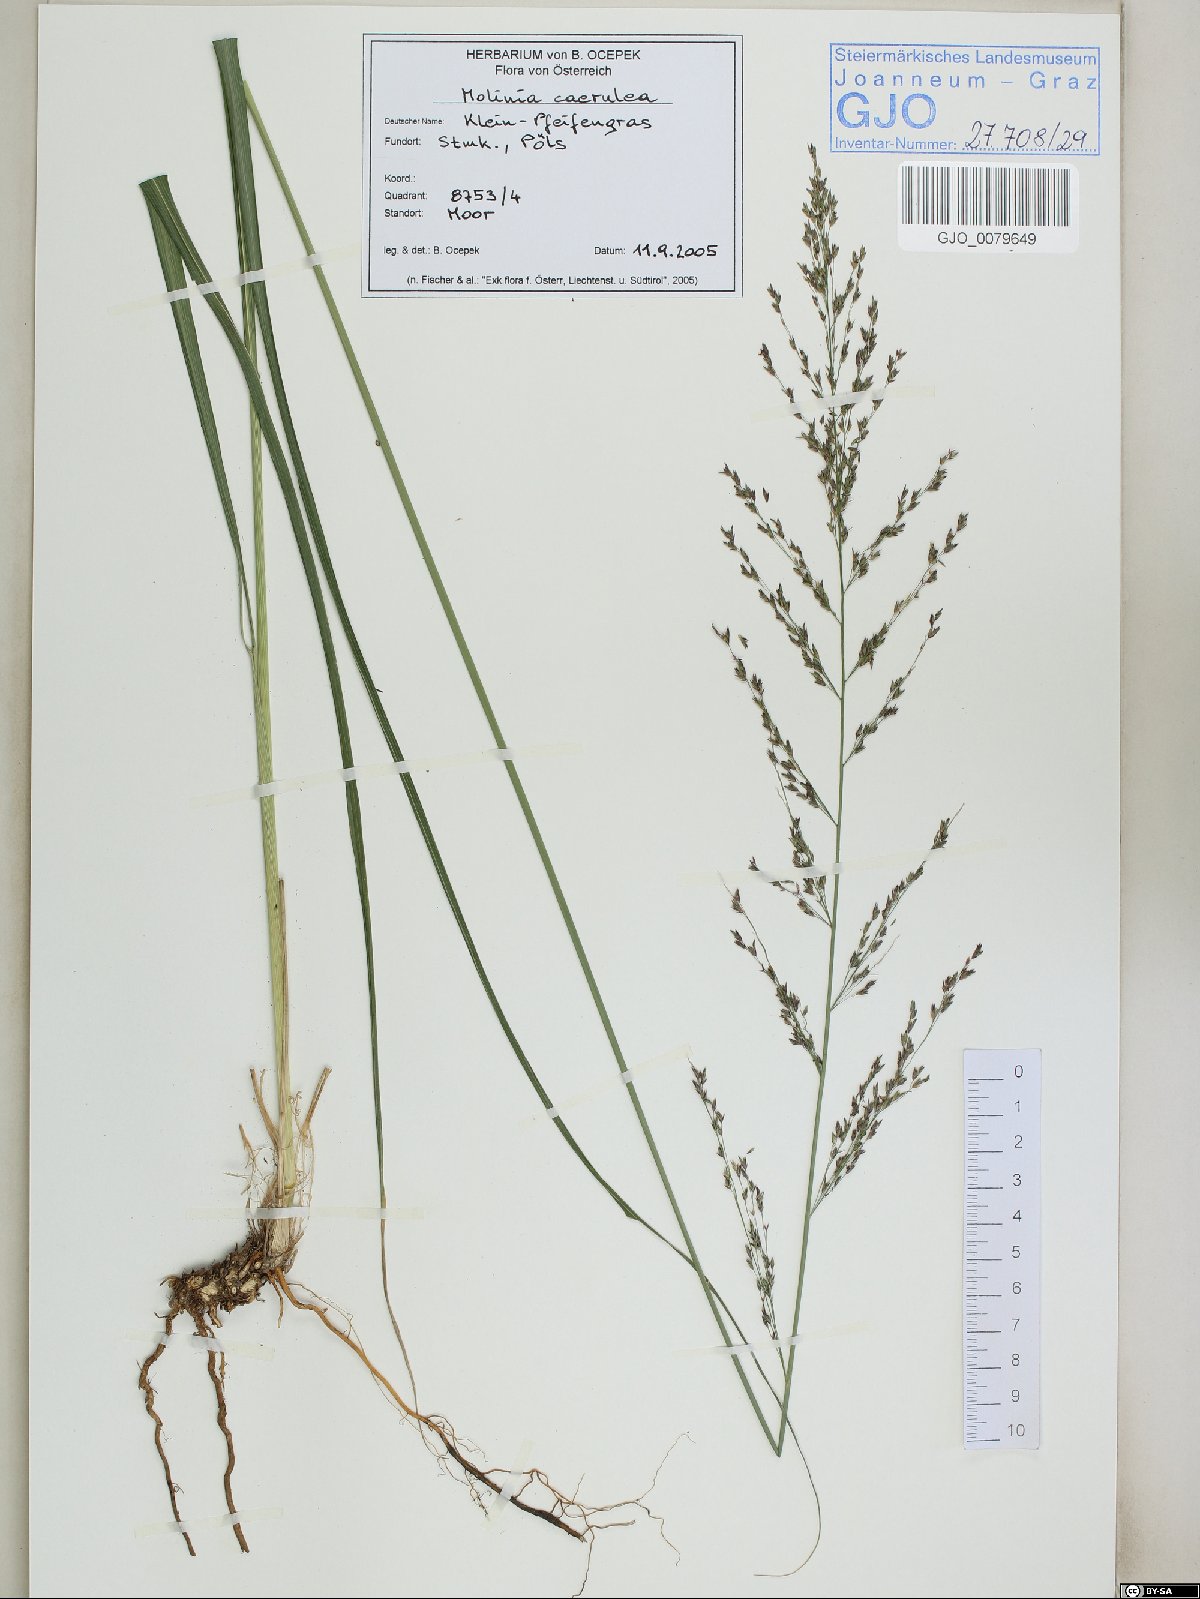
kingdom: Plantae
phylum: Tracheophyta
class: Liliopsida
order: Poales
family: Poaceae
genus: Molinia
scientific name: Molinia caerulea
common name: Purple moor-grass
